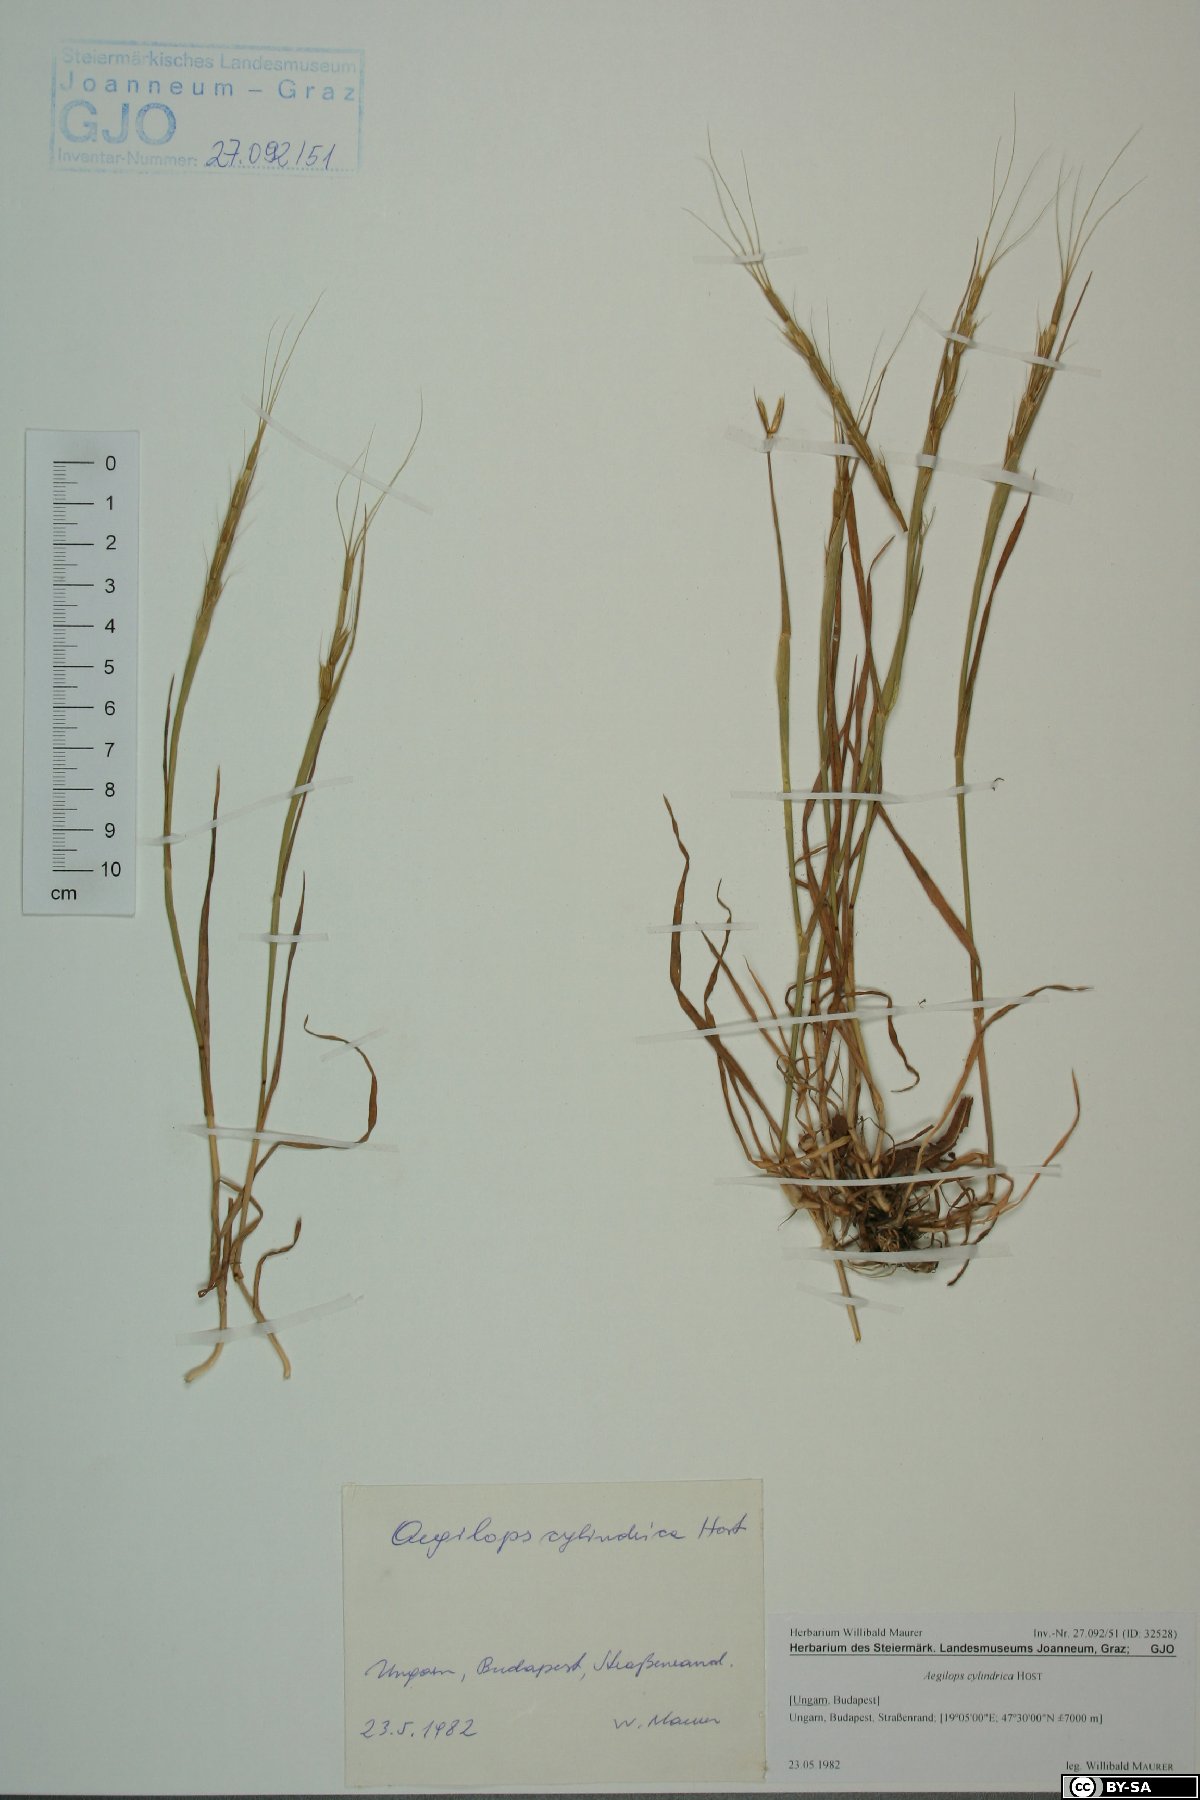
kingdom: Plantae
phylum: Tracheophyta
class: Liliopsida
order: Poales
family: Poaceae
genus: Aegilops
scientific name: Aegilops cylindrica
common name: Jointed goatgrass
